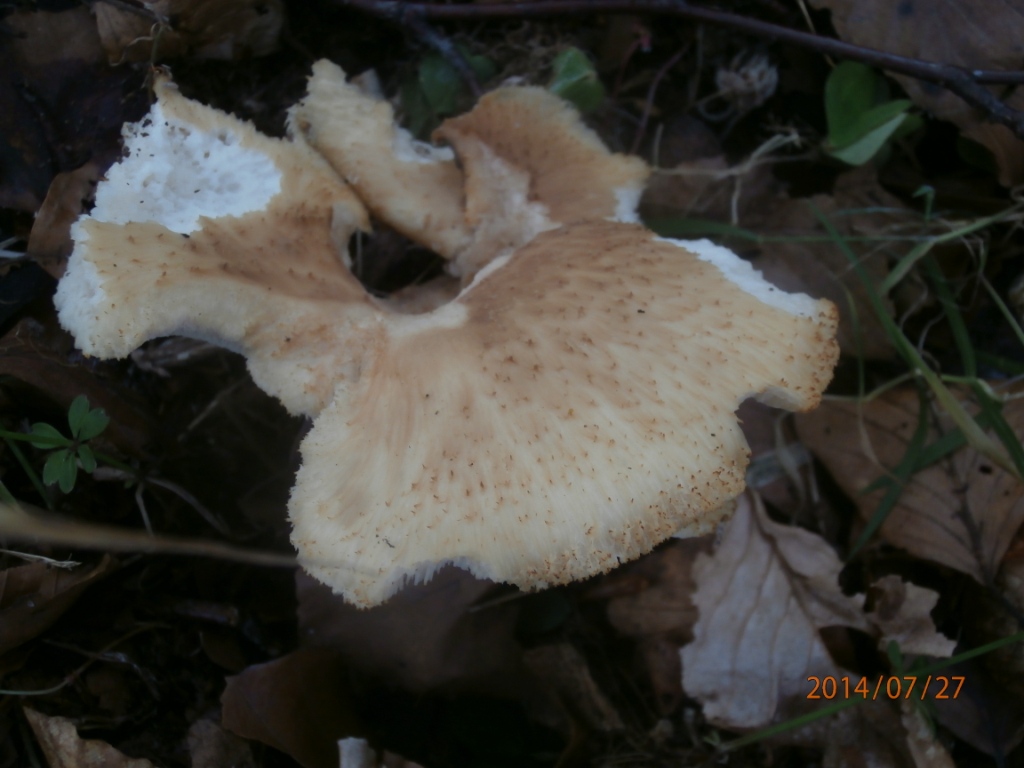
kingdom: Fungi
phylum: Basidiomycota
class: Agaricomycetes
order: Polyporales
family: Polyporaceae
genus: Polyporus
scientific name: Polyporus tuberaster
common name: knoldet stilkporesvamp
